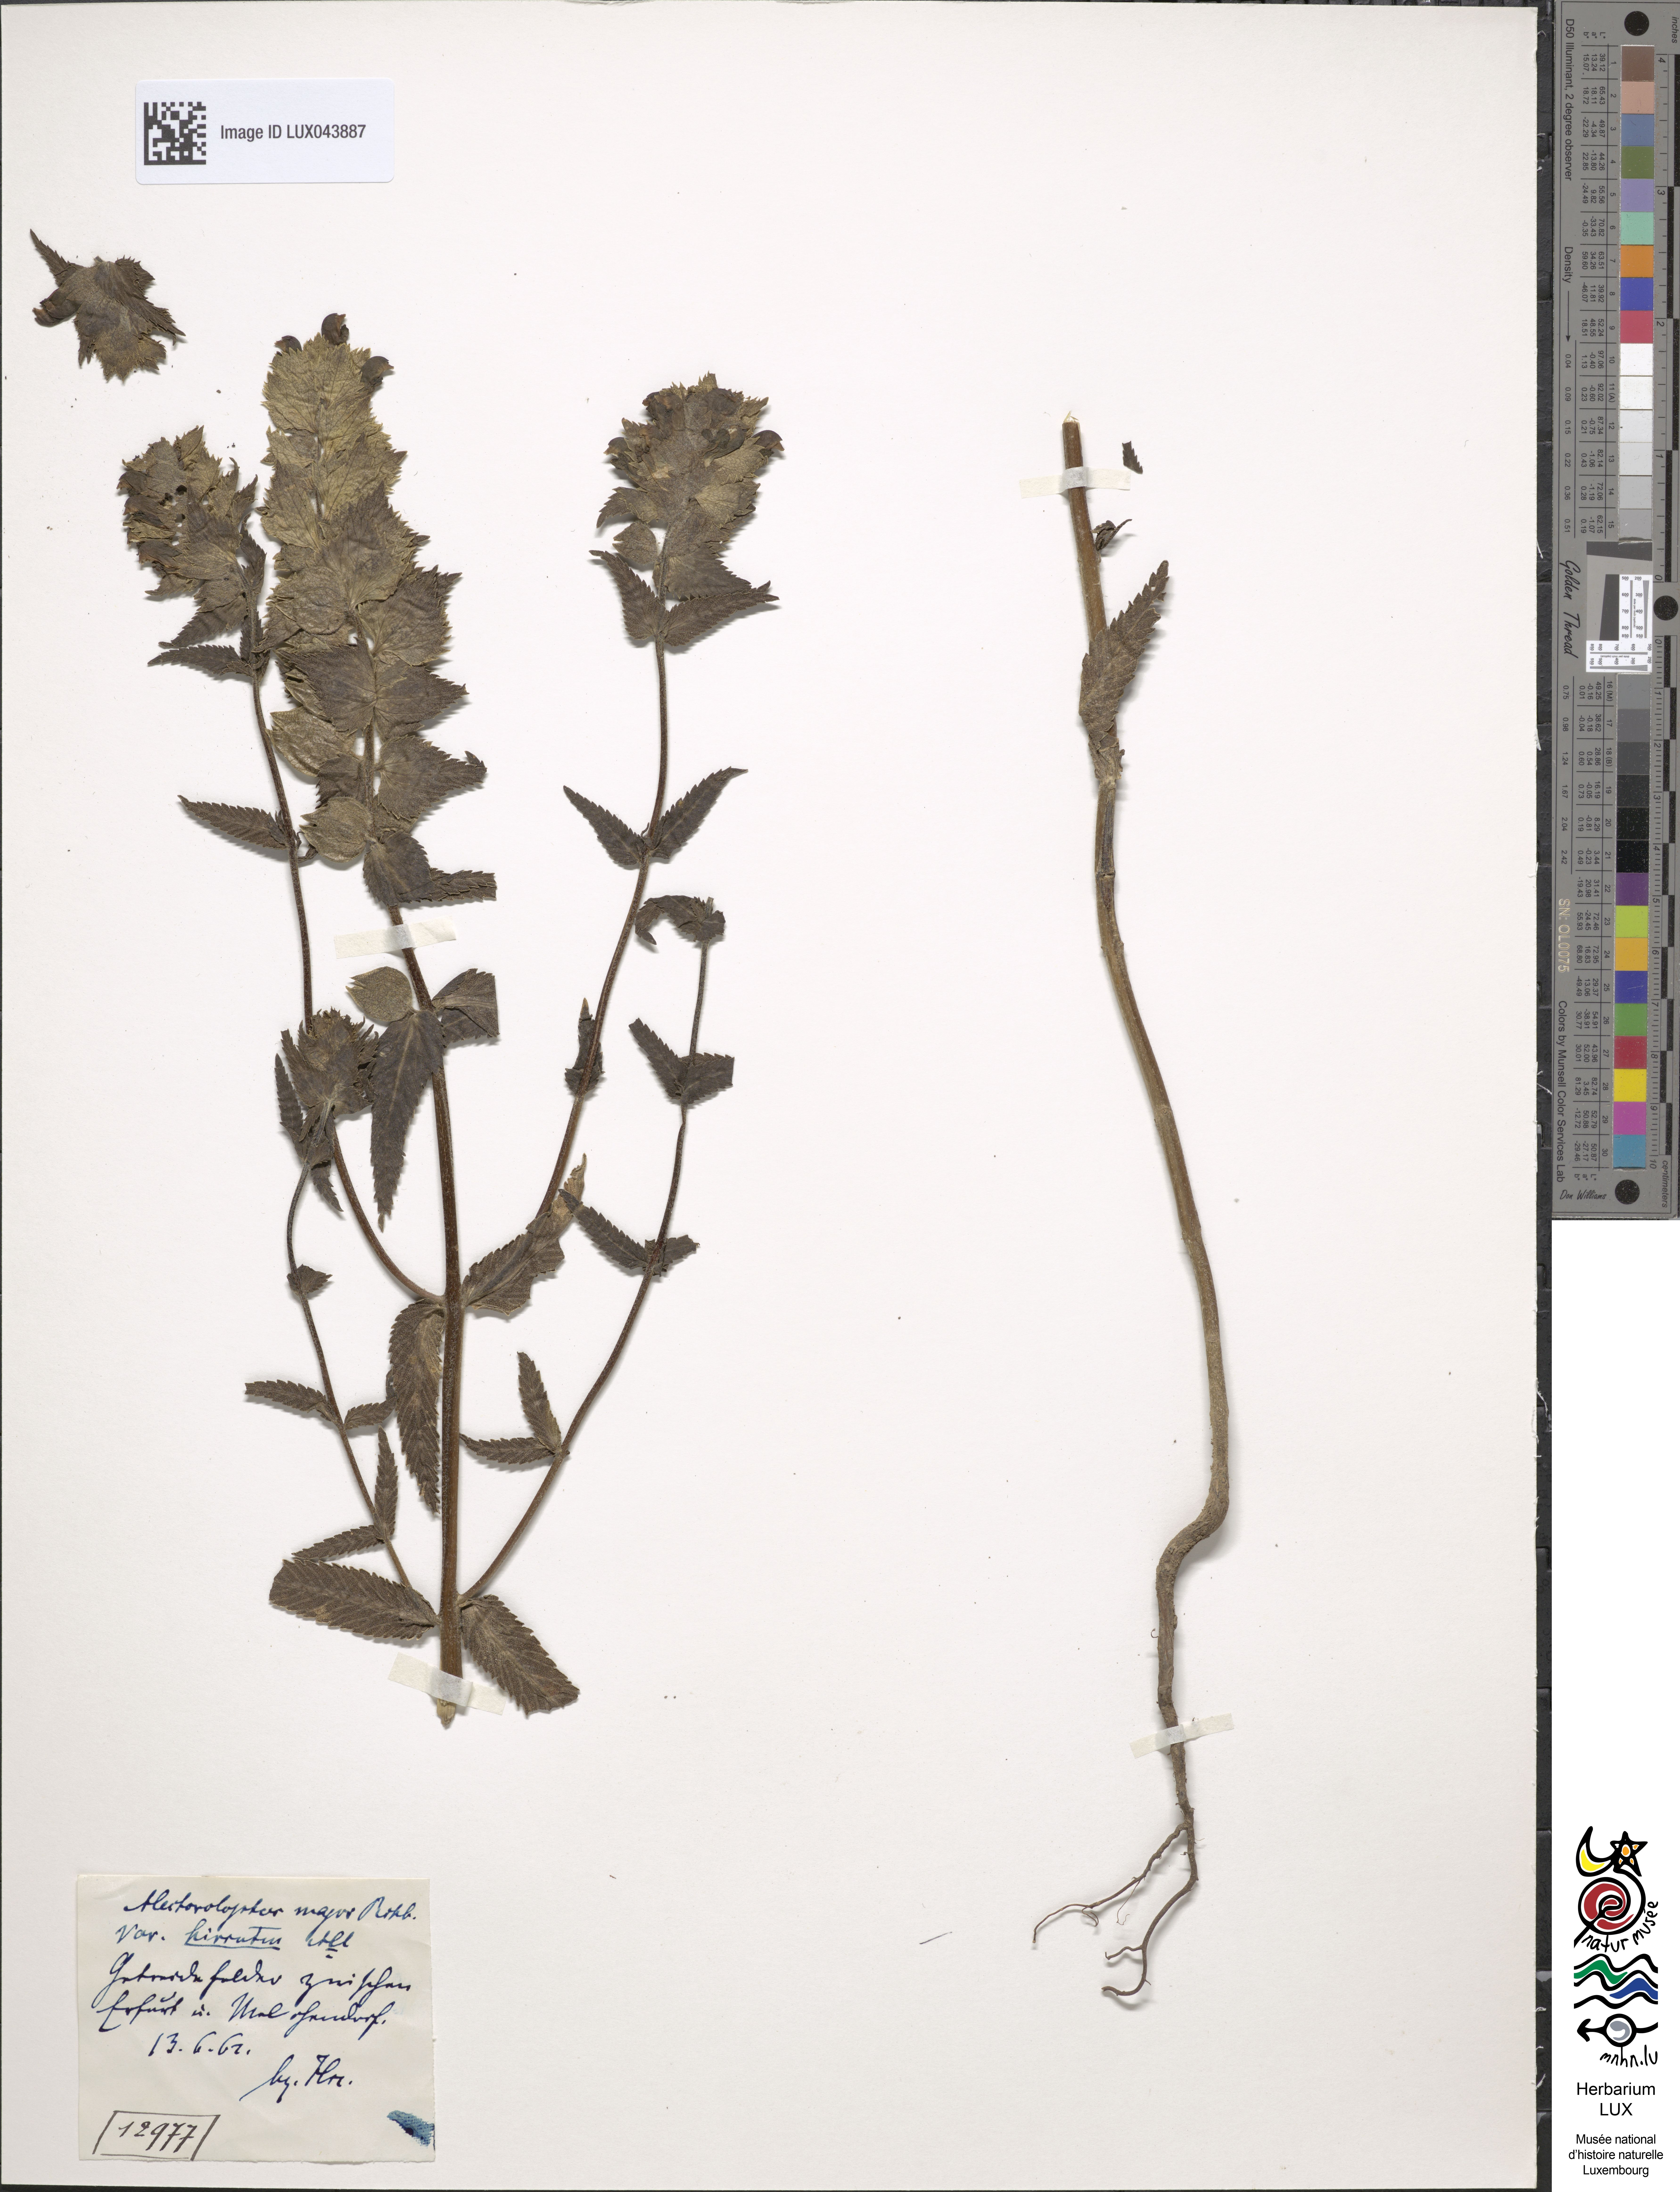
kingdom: Plantae
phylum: Tracheophyta
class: Magnoliopsida
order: Lamiales
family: Orobanchaceae
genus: Rhinanthus
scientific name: Rhinanthus serotinus
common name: Late-flowering yellow rattle
